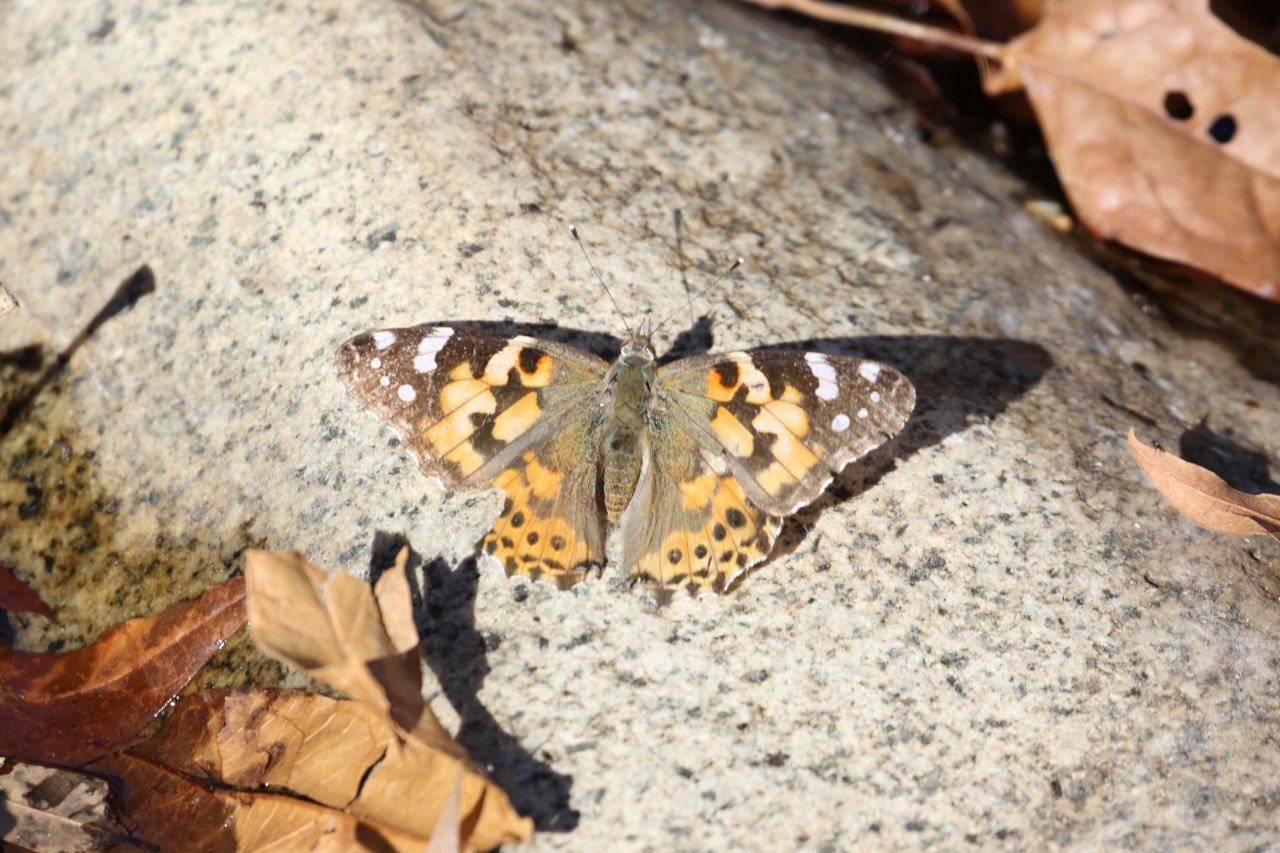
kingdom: Animalia
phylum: Arthropoda
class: Insecta
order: Lepidoptera
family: Nymphalidae
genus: Vanessa
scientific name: Vanessa cardui
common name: Painted Lady
